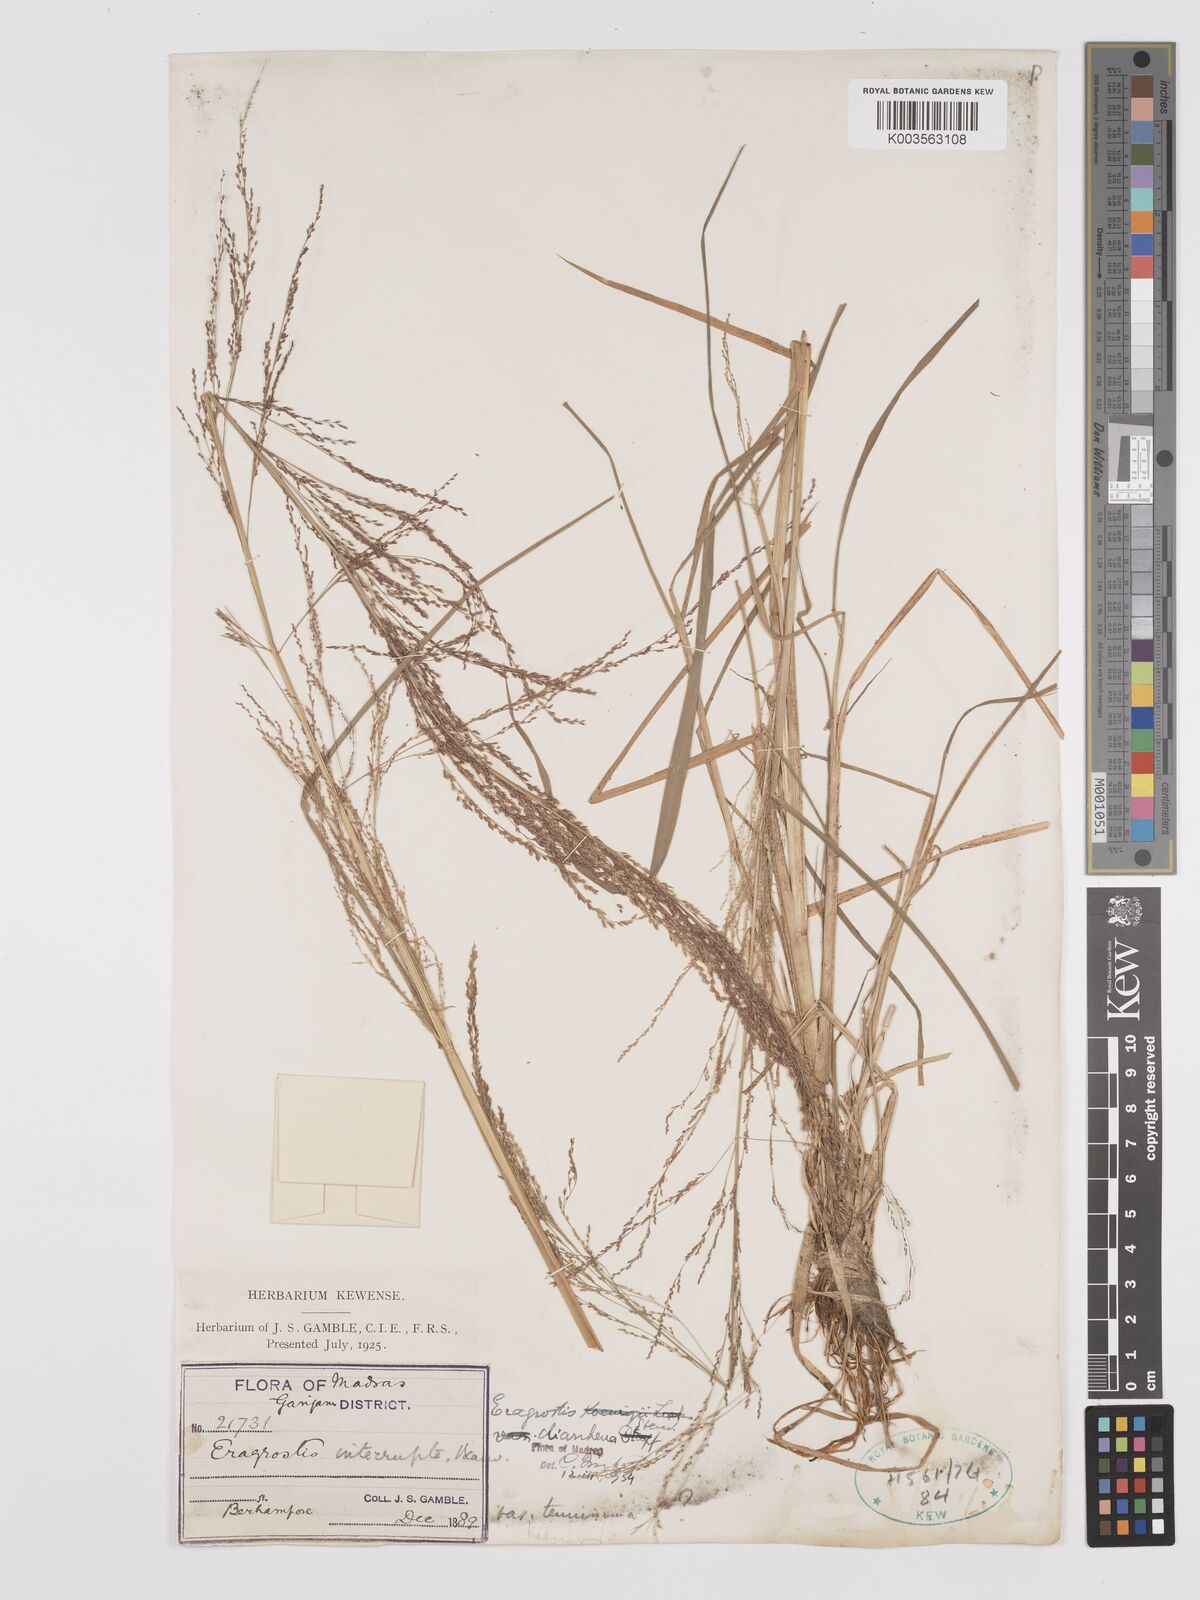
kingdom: Plantae
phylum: Tracheophyta
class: Liliopsida
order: Poales
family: Poaceae
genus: Eragrostis
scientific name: Eragrostis japonica
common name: Pond lovegrass
